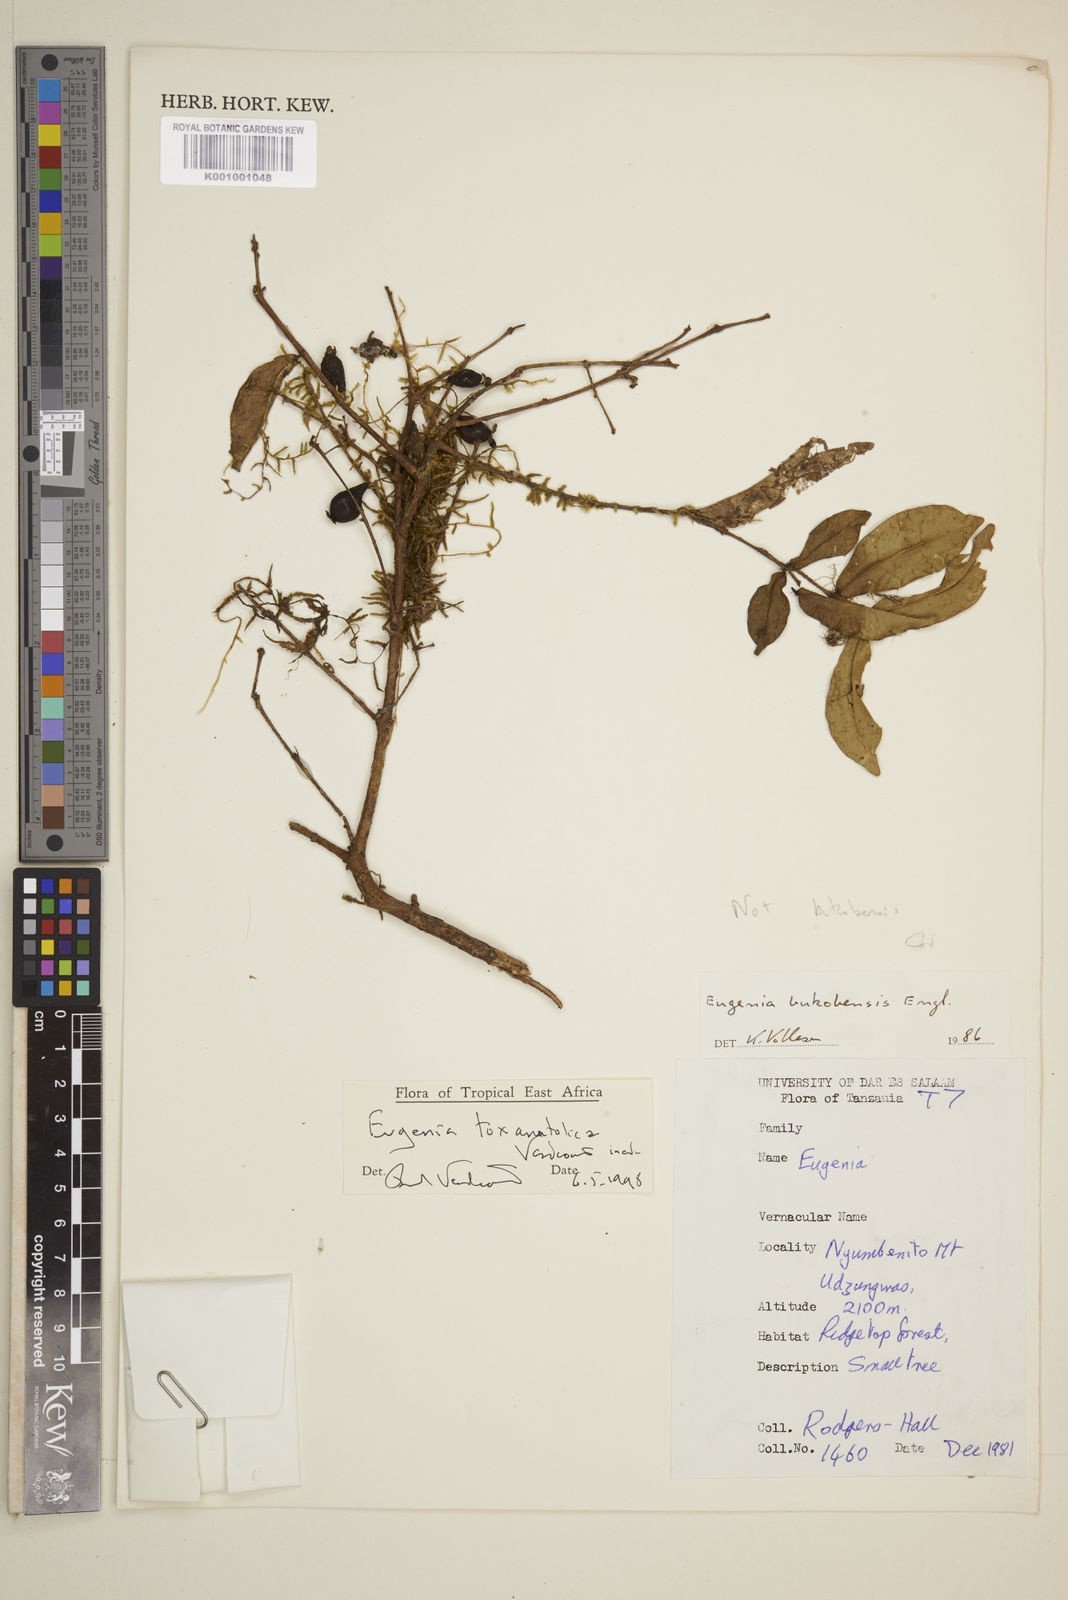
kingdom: Plantae
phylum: Tracheophyta
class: Magnoliopsida
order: Myrtales
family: Myrtaceae
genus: Eugenia
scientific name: Eugenia toxanatolica
